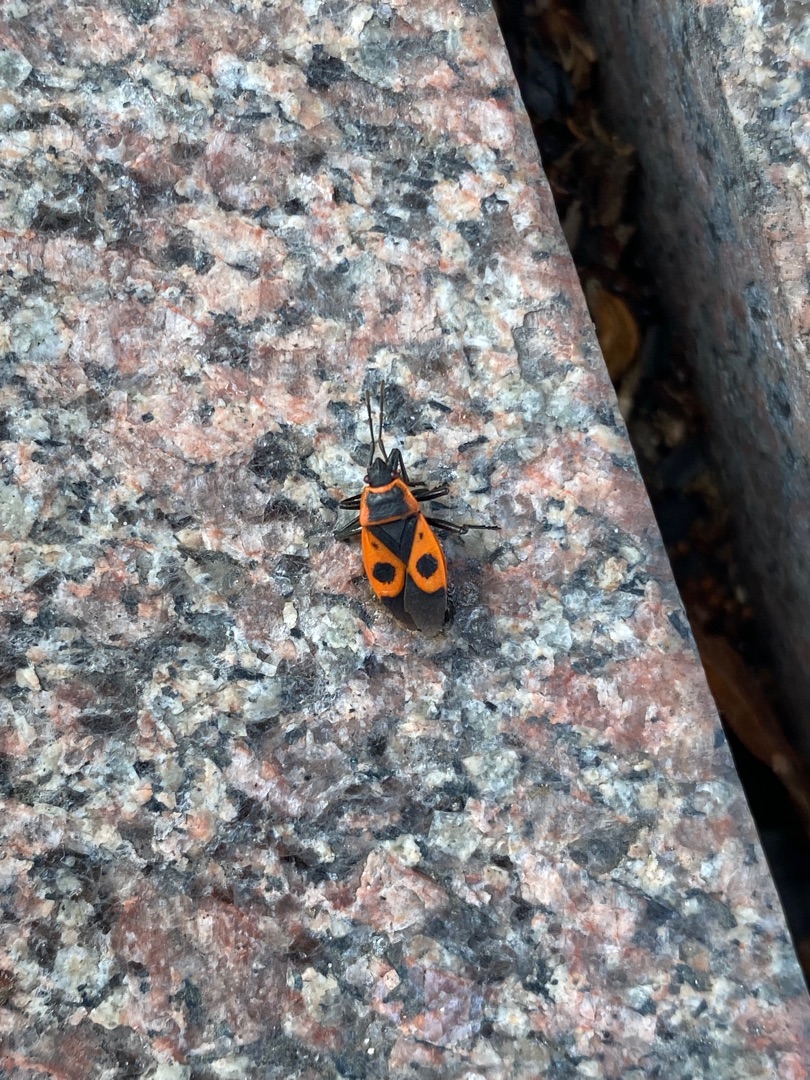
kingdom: Animalia
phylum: Arthropoda
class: Insecta
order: Hemiptera
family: Pyrrhocoridae
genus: Pyrrhocoris
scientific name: Pyrrhocoris apterus
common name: Ildtæge
